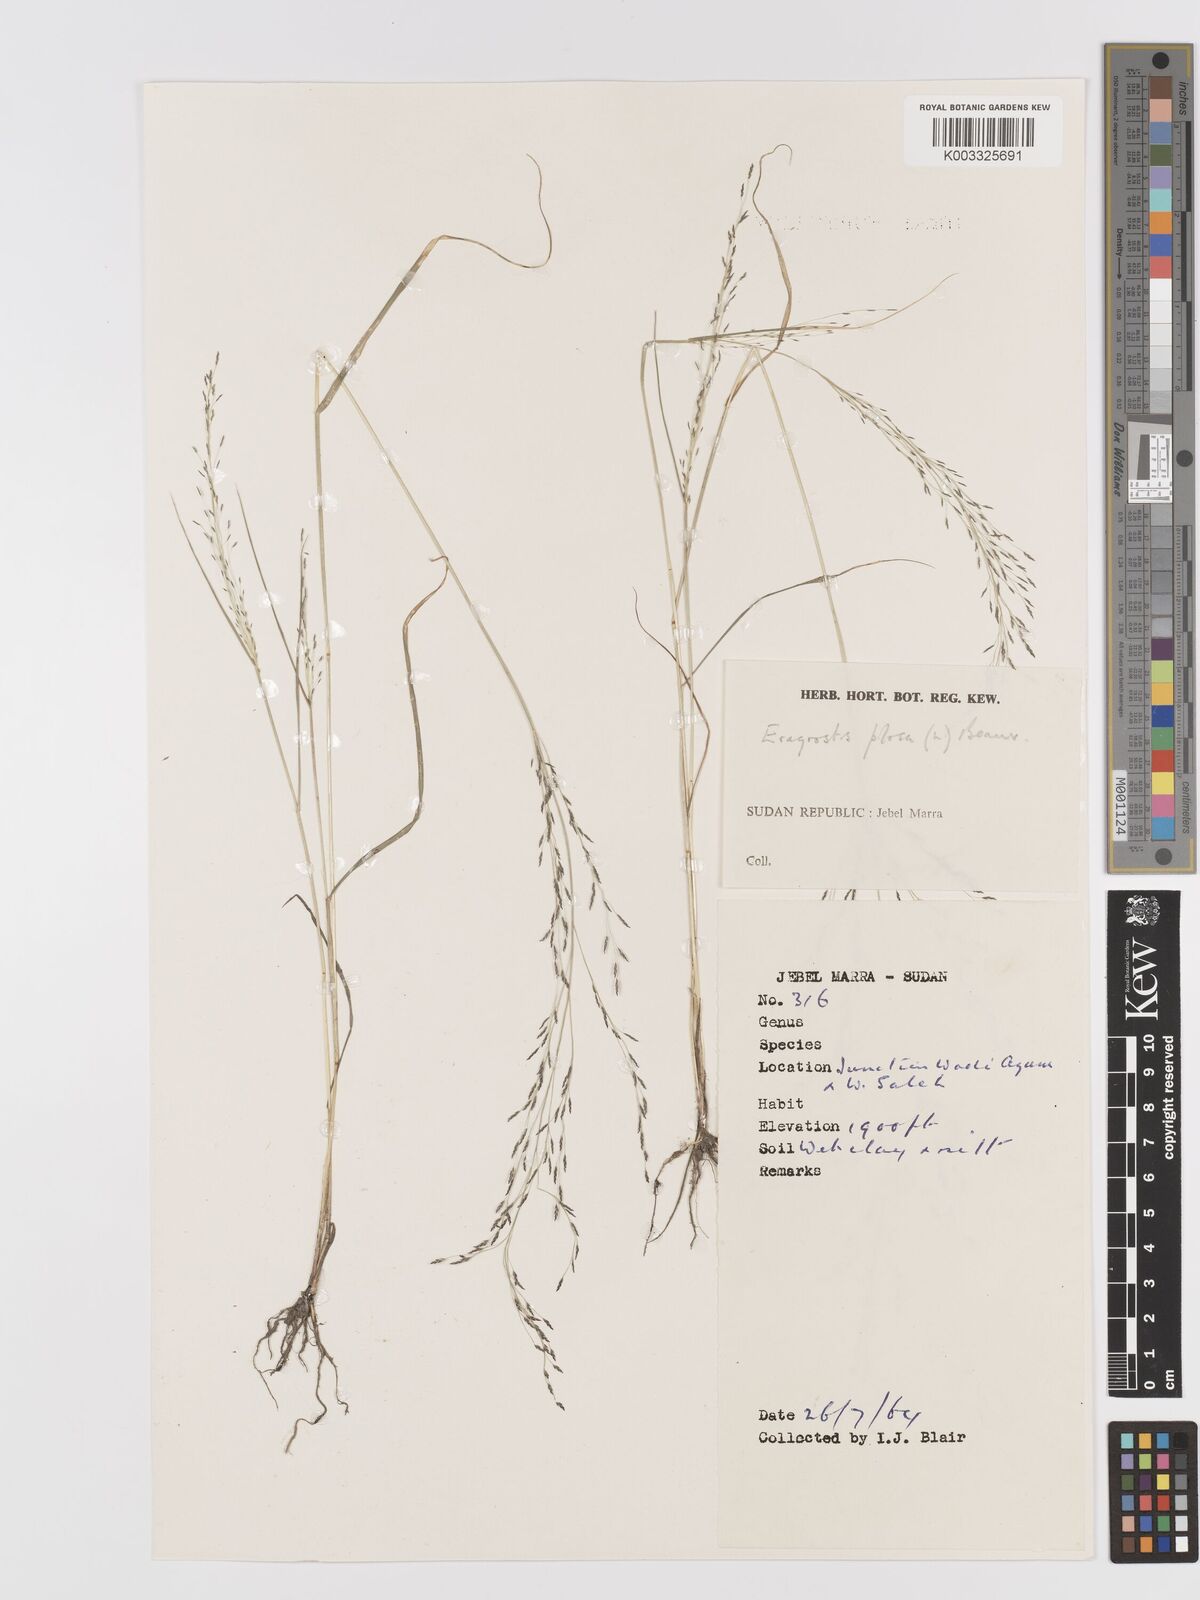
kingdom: Plantae
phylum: Tracheophyta
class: Liliopsida
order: Poales
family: Poaceae
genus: Eragrostis
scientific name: Eragrostis pilosa
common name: Indian lovegrass
